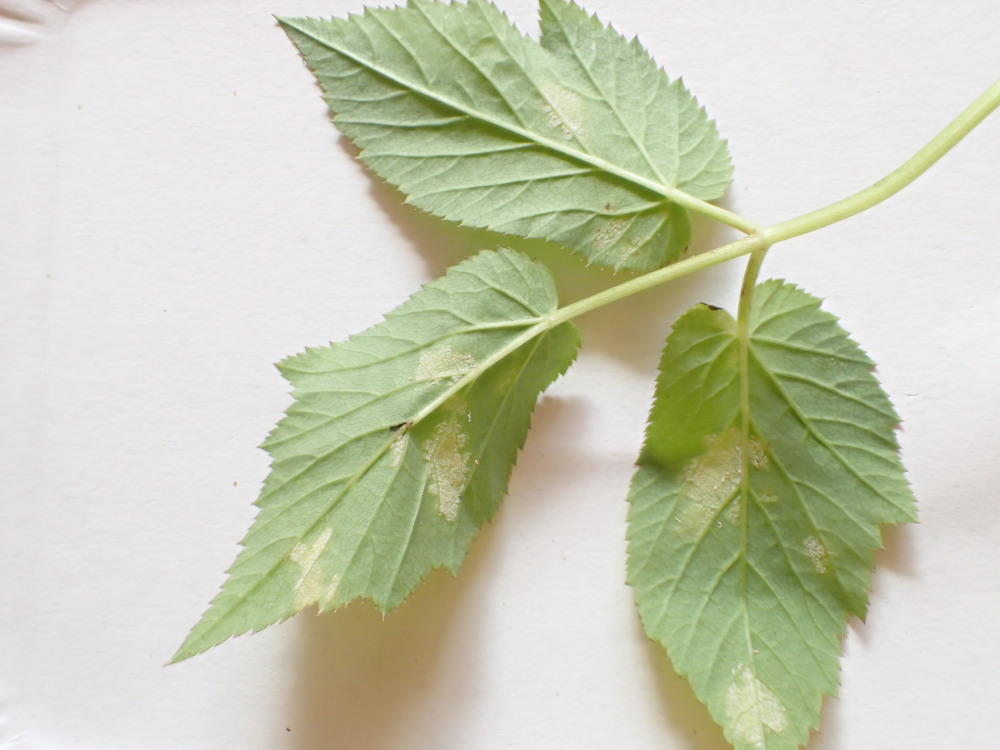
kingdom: Chromista
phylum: Oomycota
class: Peronosporea
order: Peronosporales
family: Peronosporaceae
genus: Peronospora
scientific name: Peronospora crustosa
